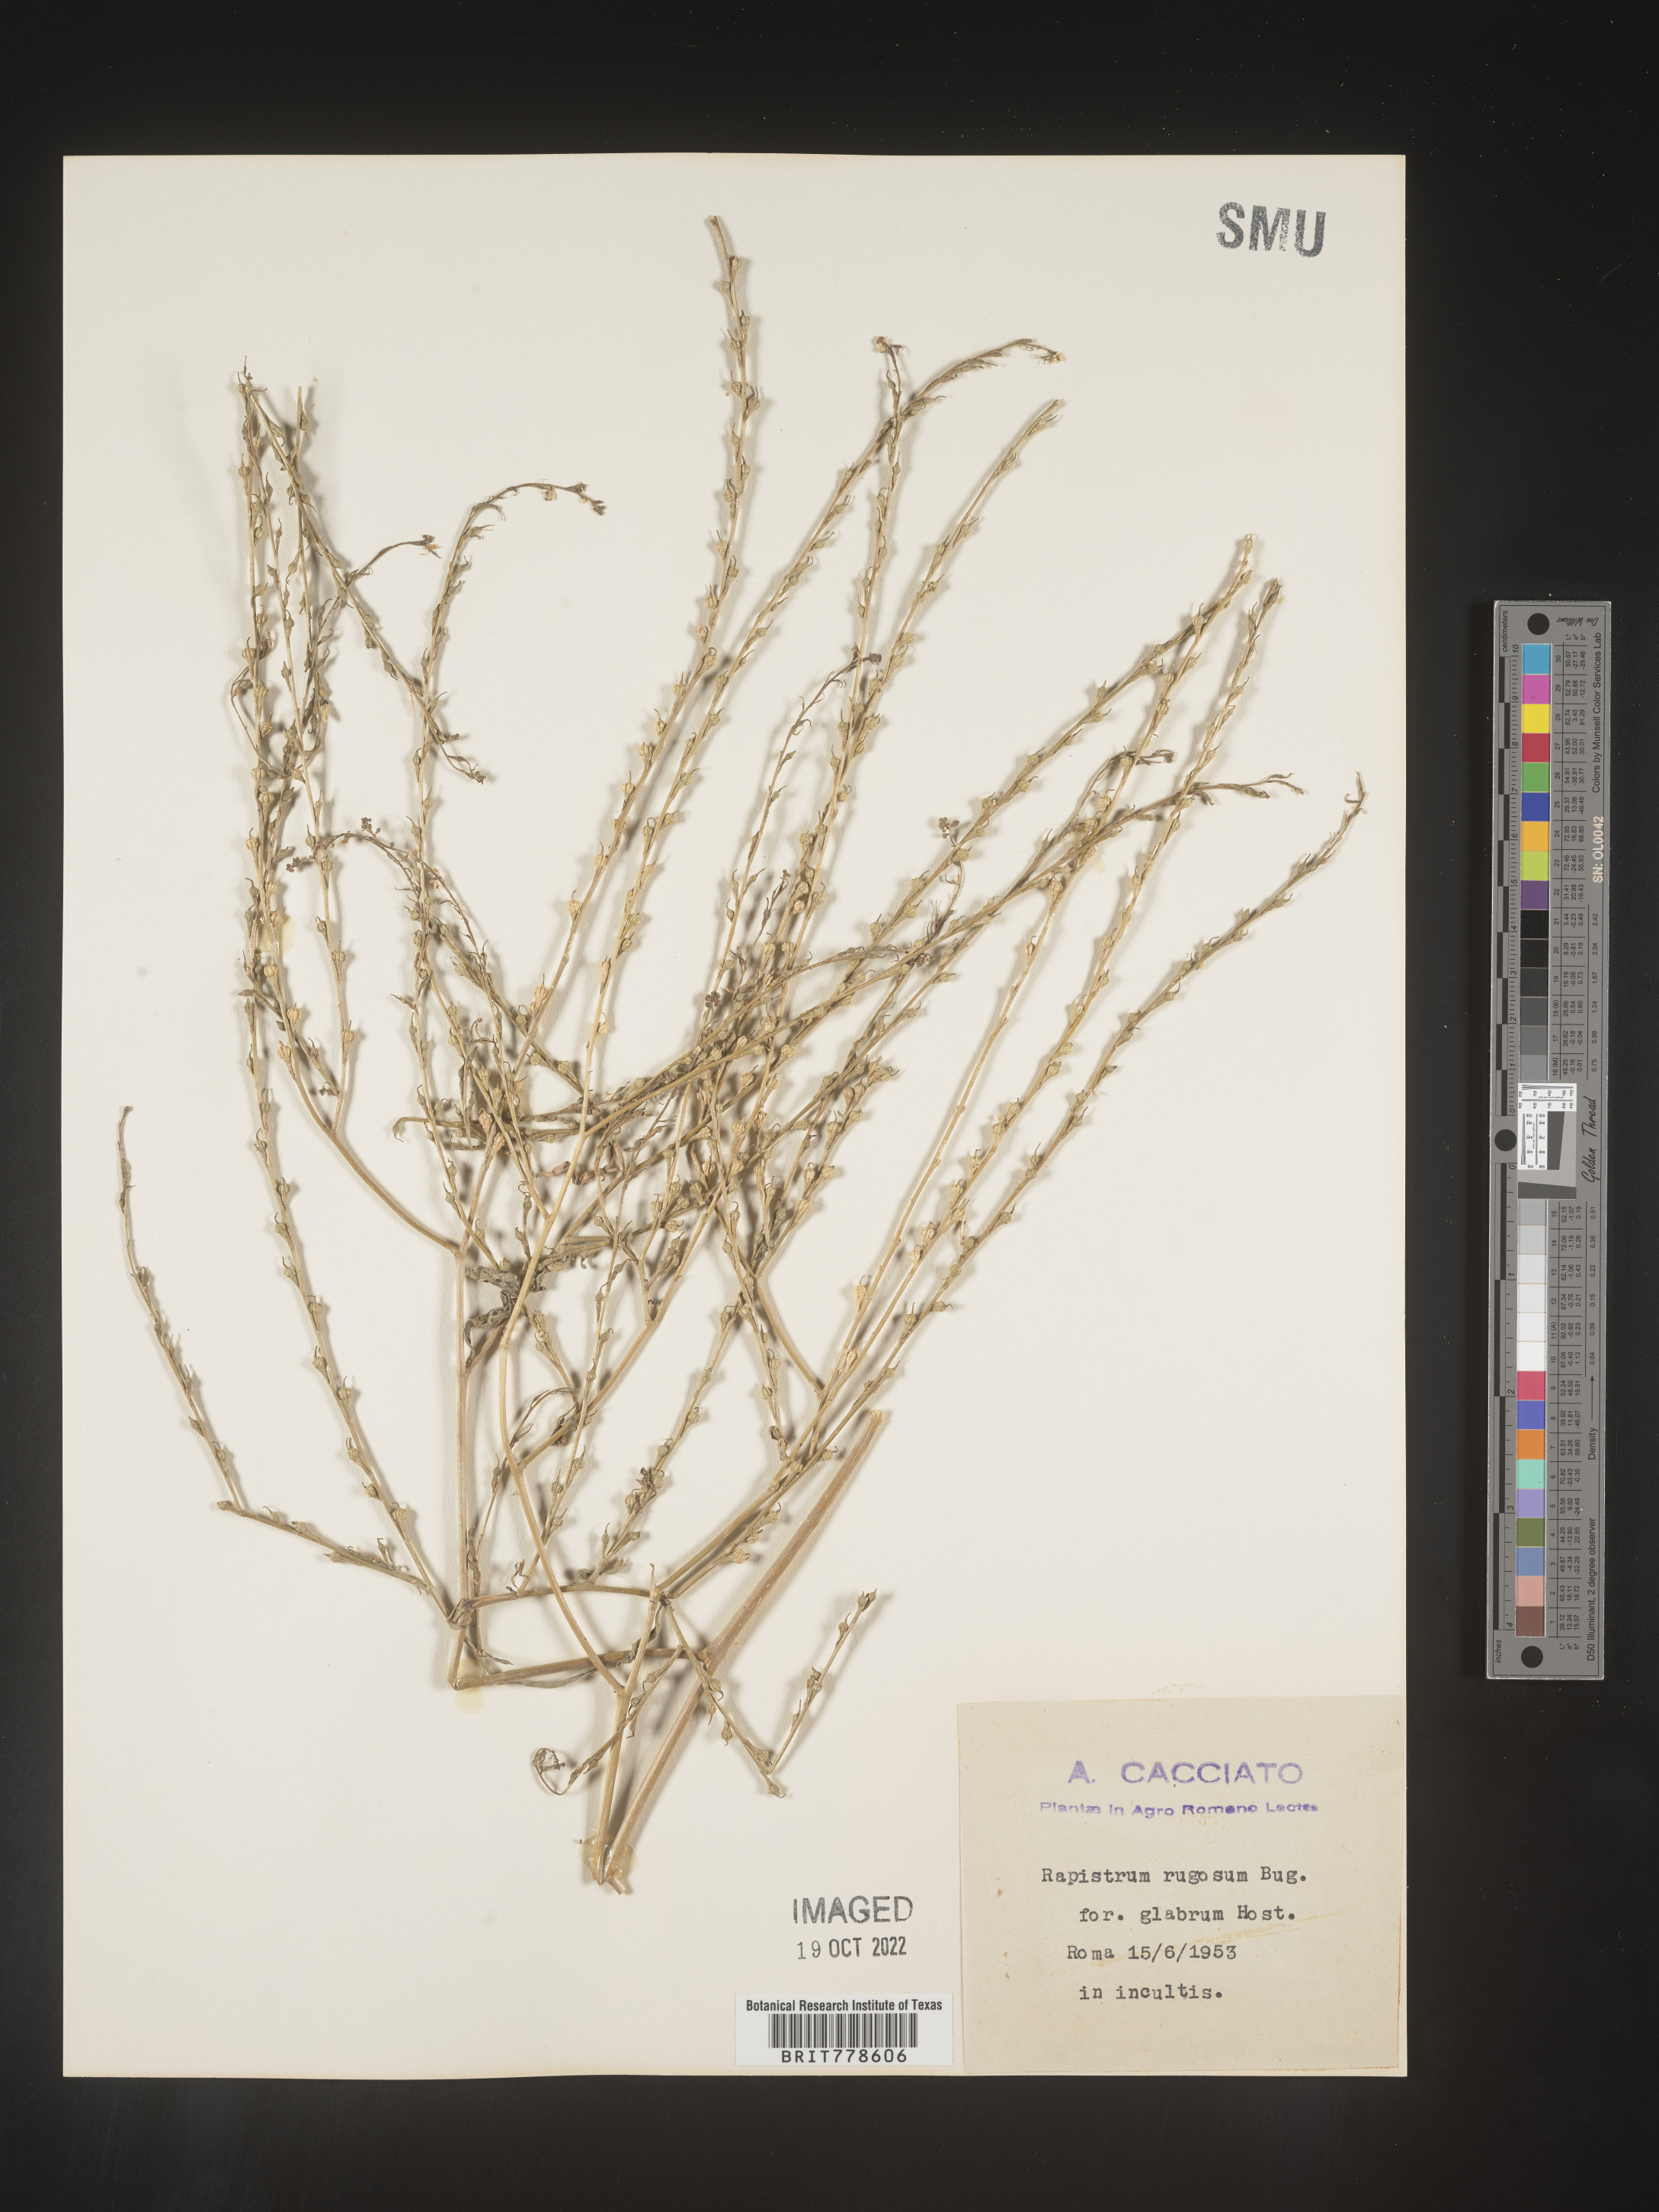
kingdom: Plantae
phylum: Tracheophyta
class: Magnoliopsida
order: Brassicales
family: Brassicaceae
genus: Rapistrum
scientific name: Rapistrum
